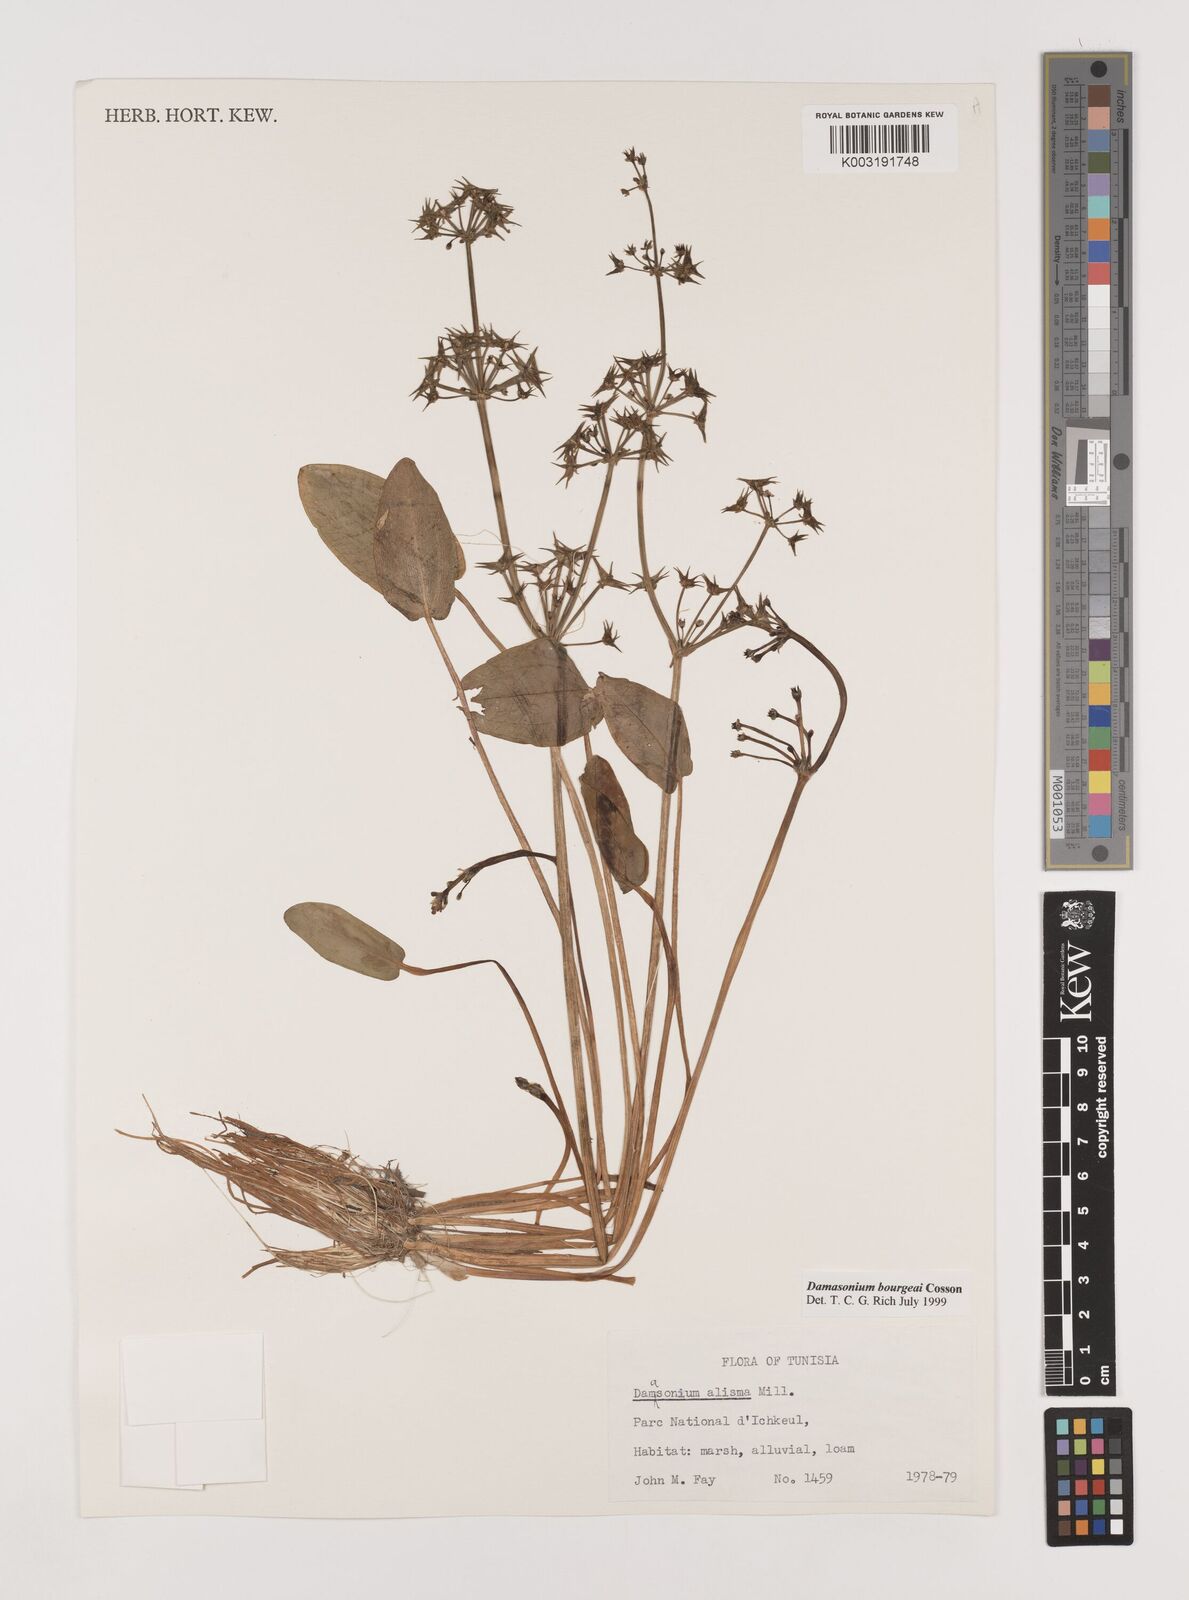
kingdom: Plantae
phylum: Tracheophyta
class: Liliopsida
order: Alismatales
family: Alismataceae
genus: Damasonium
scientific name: Damasonium bourgaei
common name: Starfruit
